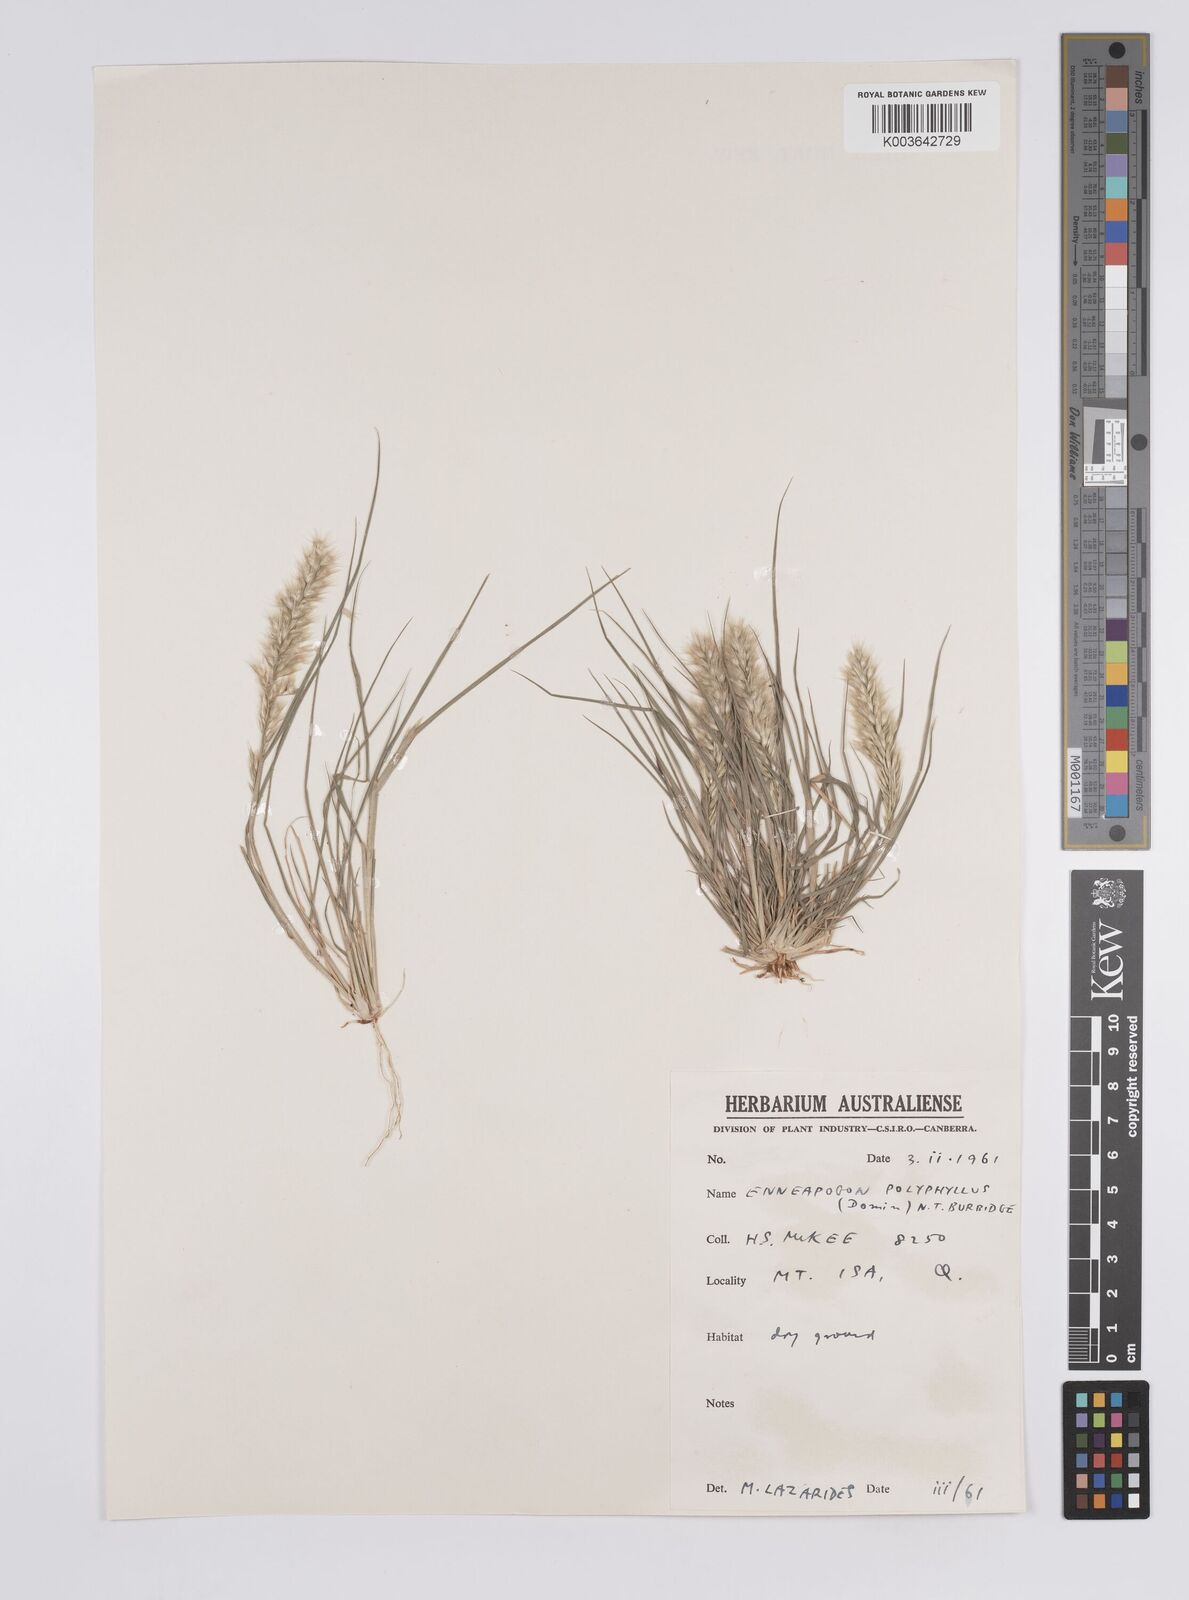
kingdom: Plantae
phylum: Tracheophyta
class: Liliopsida
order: Poales
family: Poaceae
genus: Enneapogon
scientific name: Enneapogon polyphyllus
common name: Leafy nineawn
